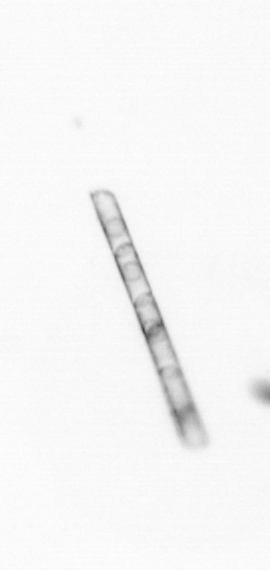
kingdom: Chromista
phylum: Ochrophyta
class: Bacillariophyceae
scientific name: Bacillariophyceae
